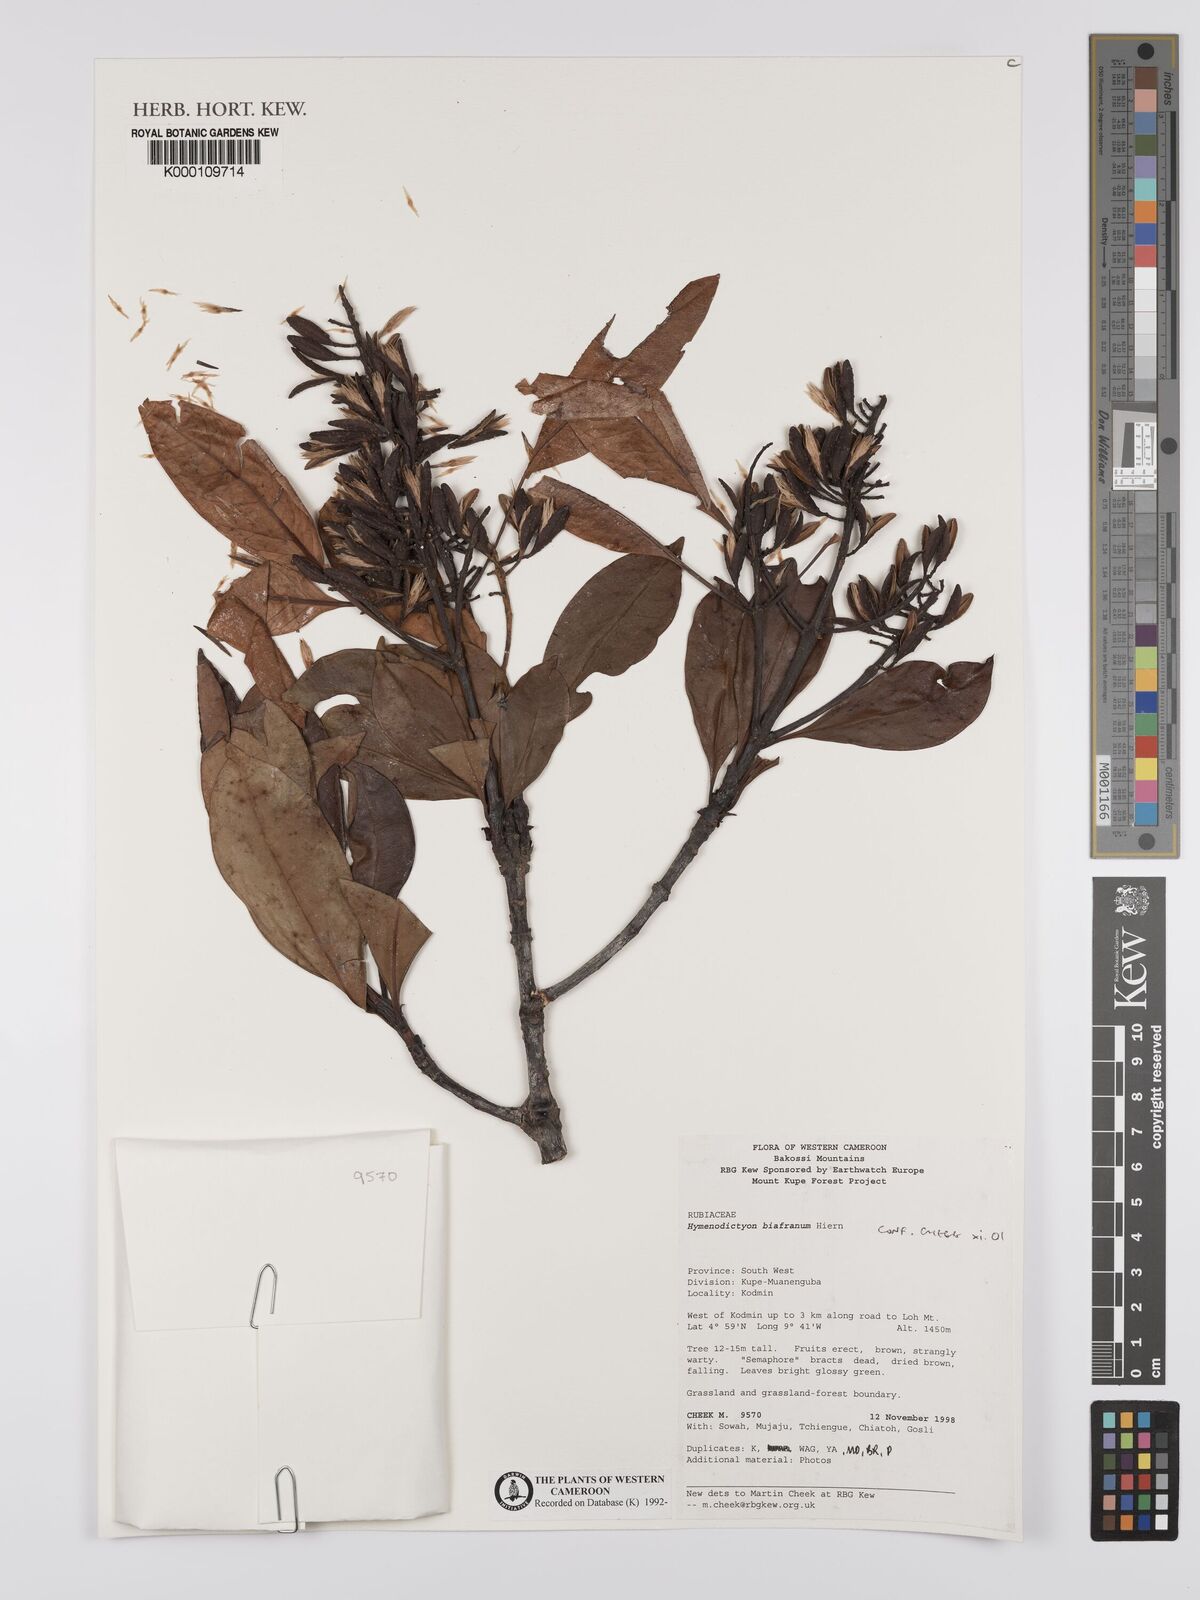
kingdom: Plantae
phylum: Tracheophyta
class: Magnoliopsida
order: Gentianales
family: Rubiaceae
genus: Hymenodictyon
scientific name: Hymenodictyon biafranum
